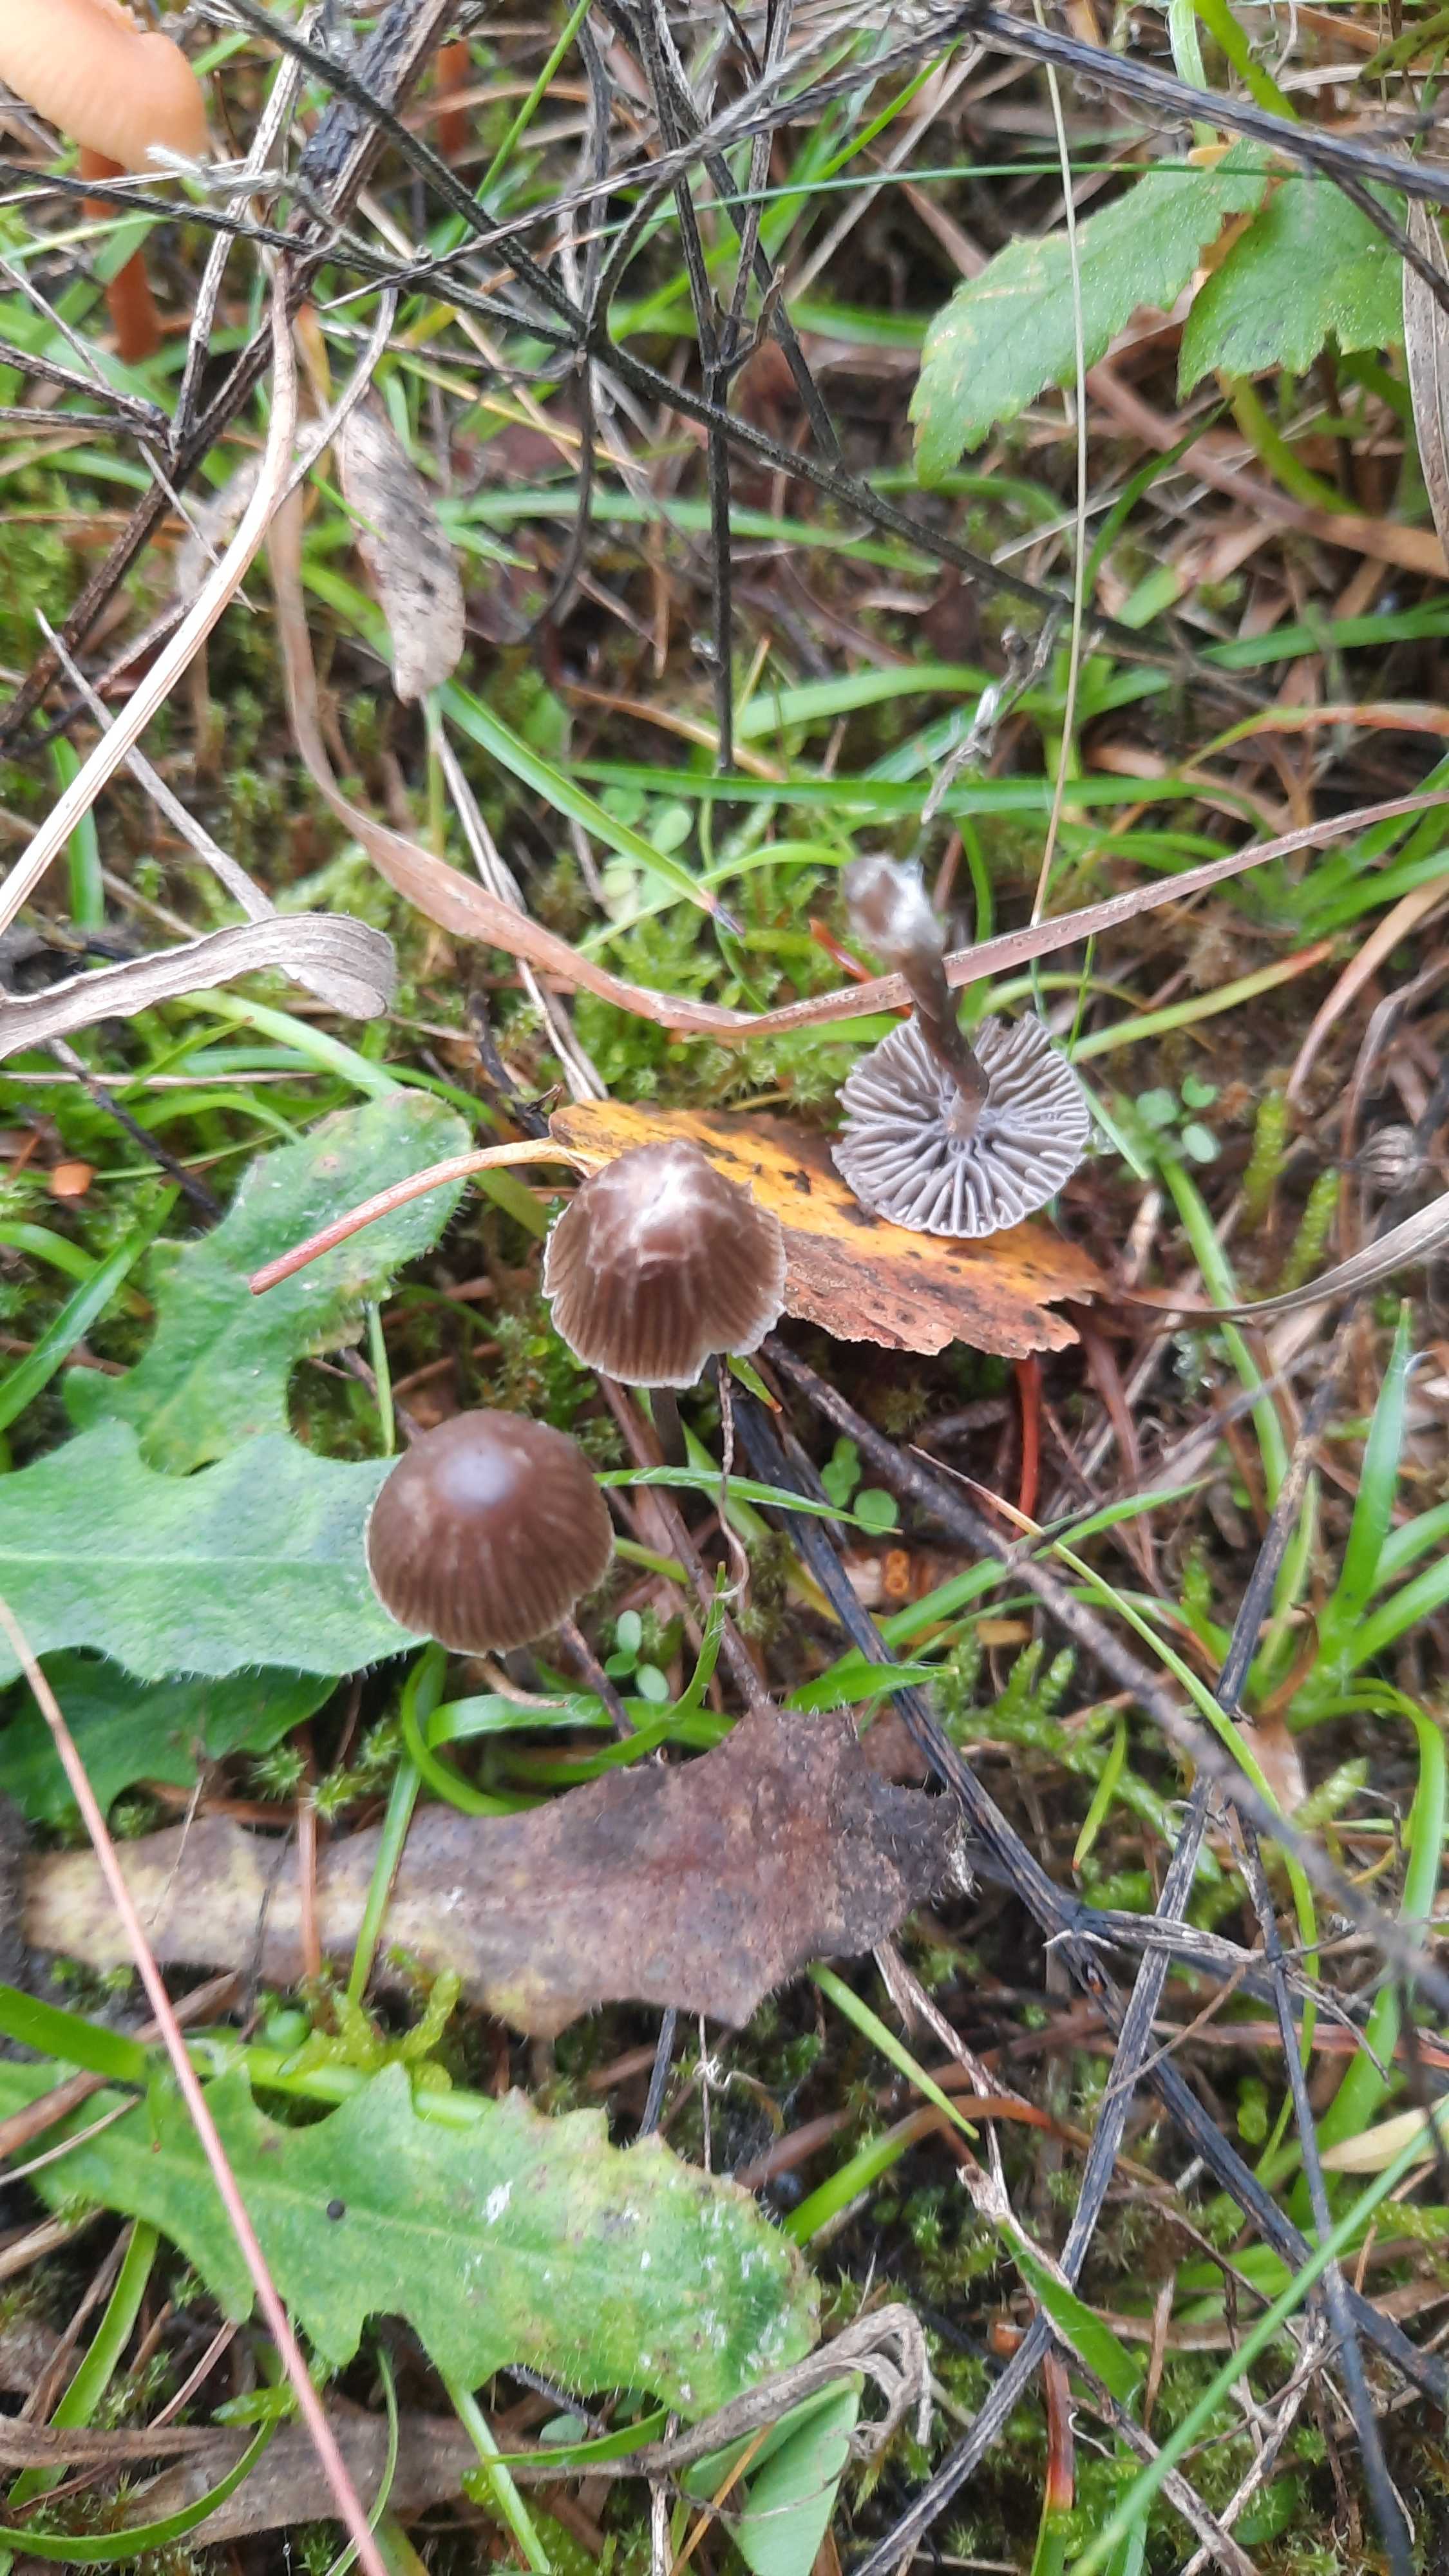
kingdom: Fungi
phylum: Basidiomycota
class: Agaricomycetes
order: Agaricales
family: Mycenaceae
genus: Mycena
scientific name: Mycena
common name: huesvamp
